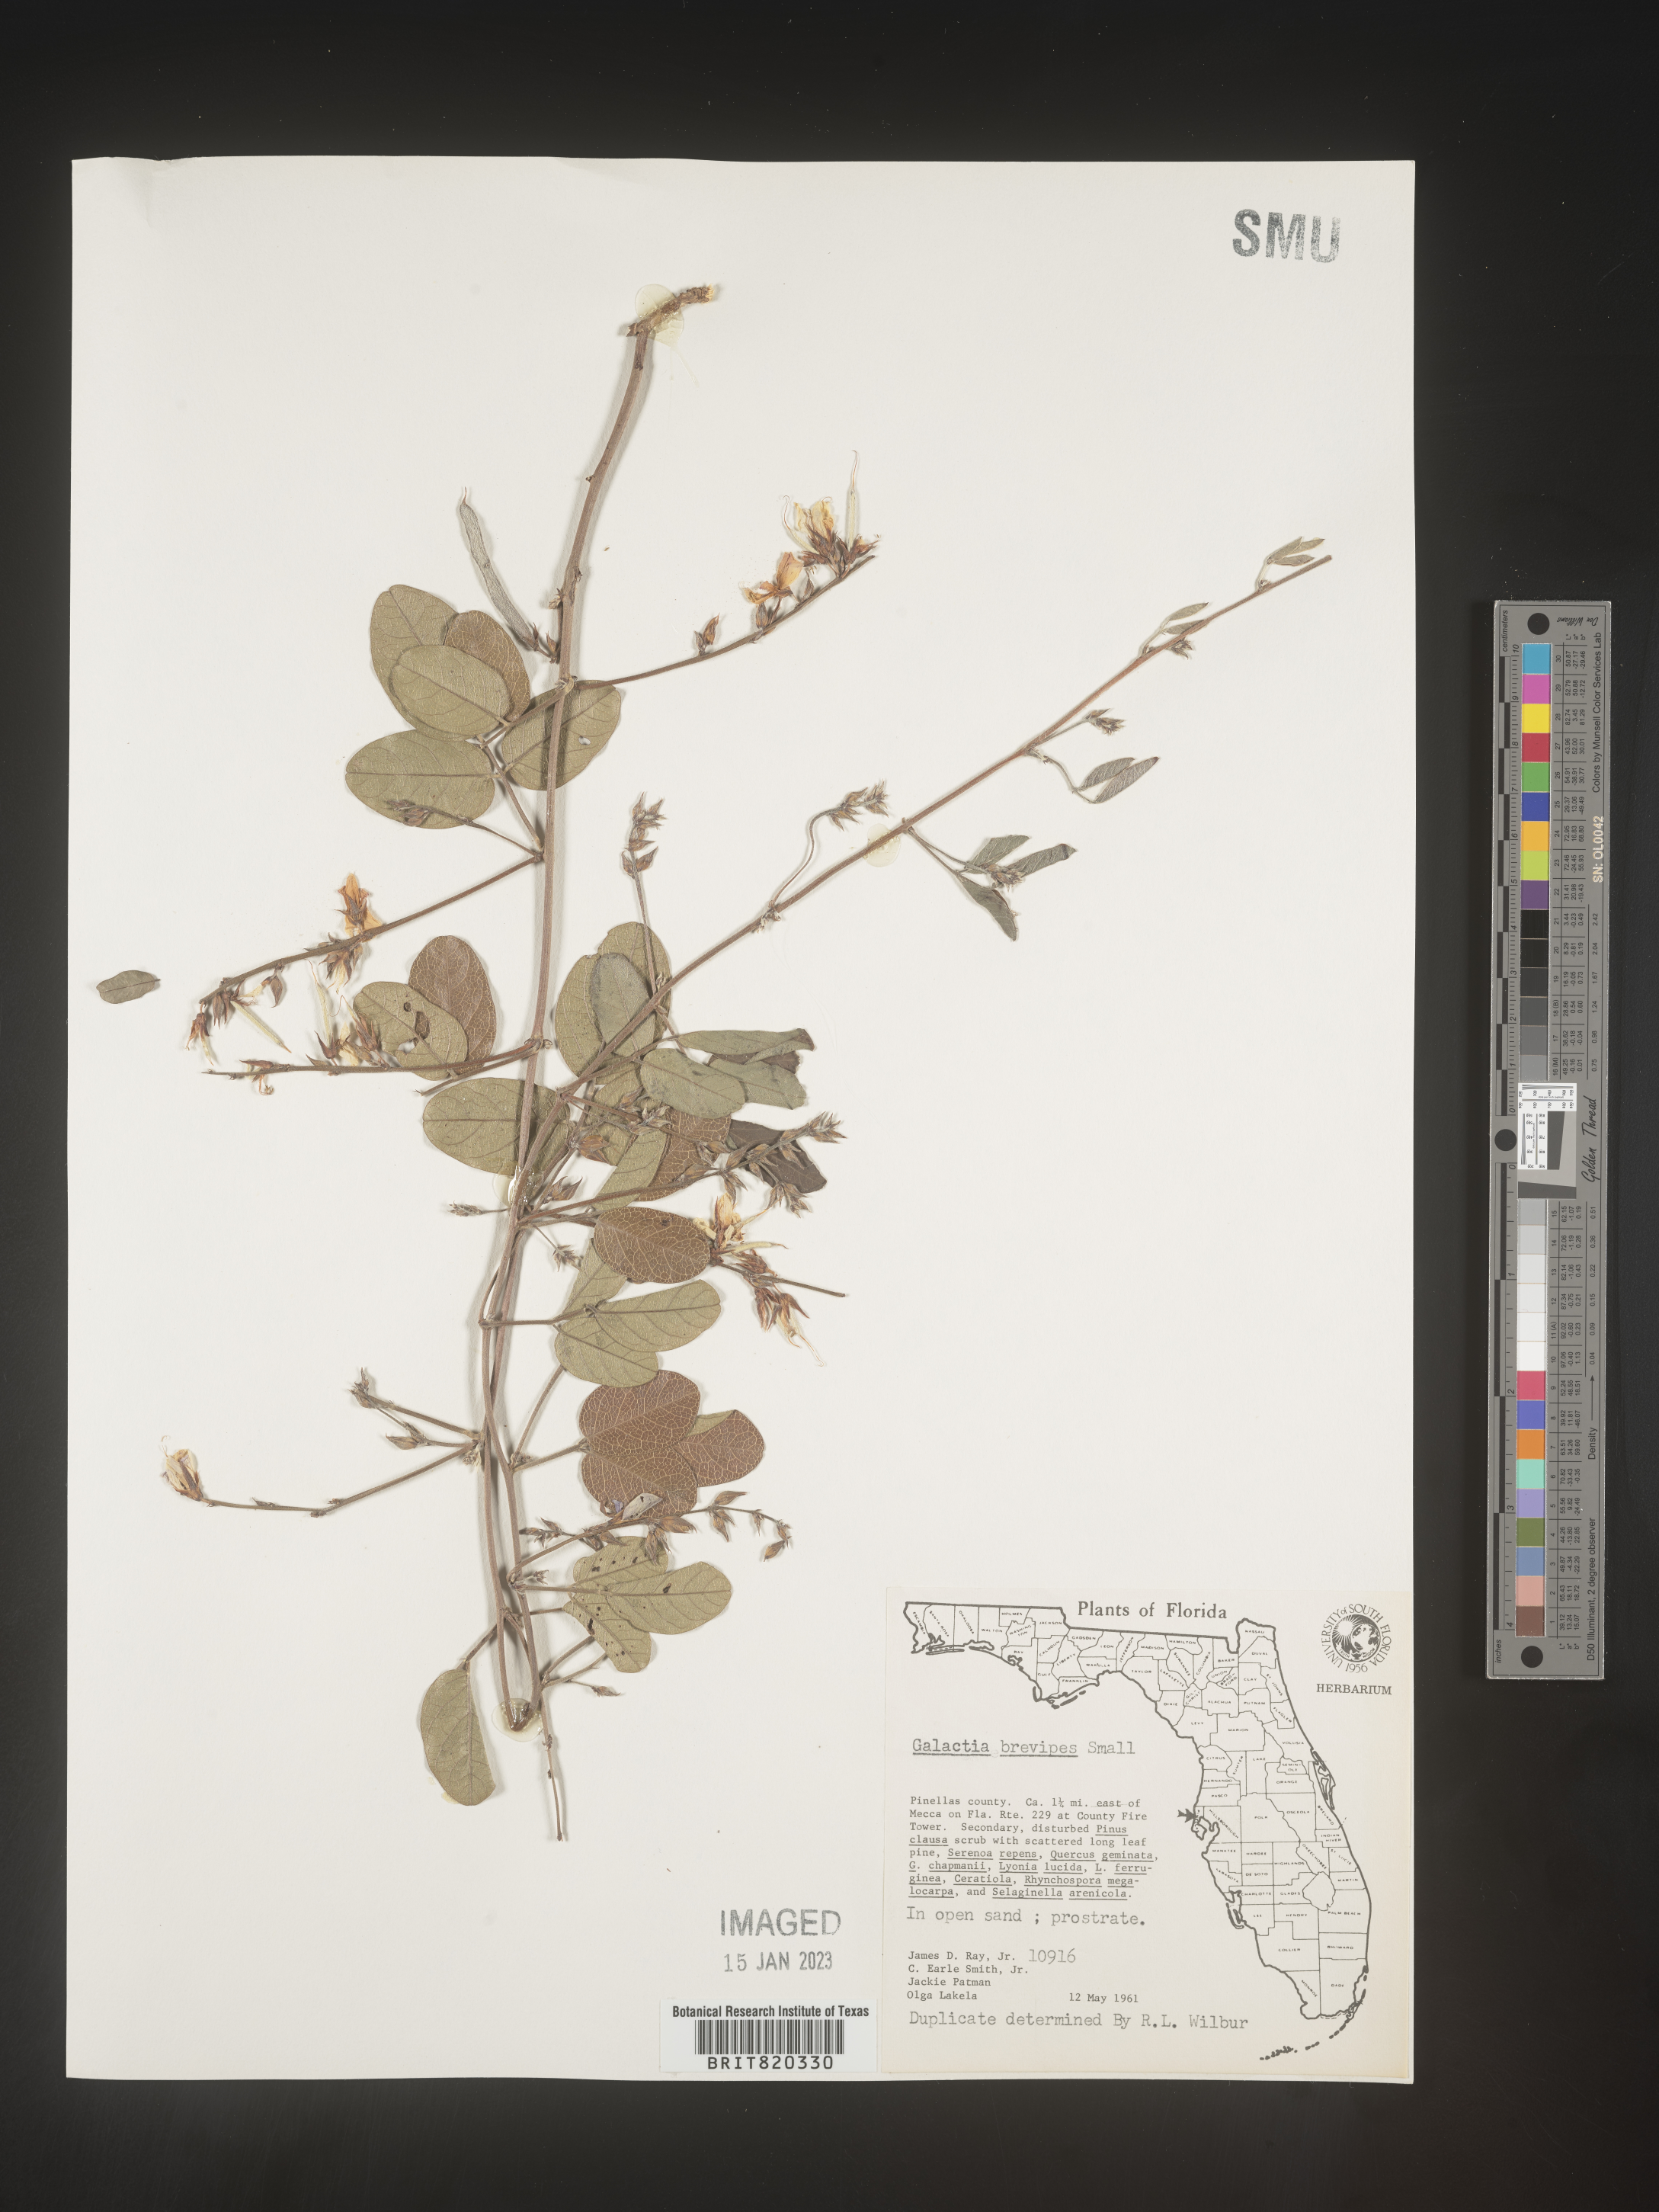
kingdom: Plantae
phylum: Tracheophyta
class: Magnoliopsida
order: Fabales
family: Fabaceae
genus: Galactia
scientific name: Galactia regularis
